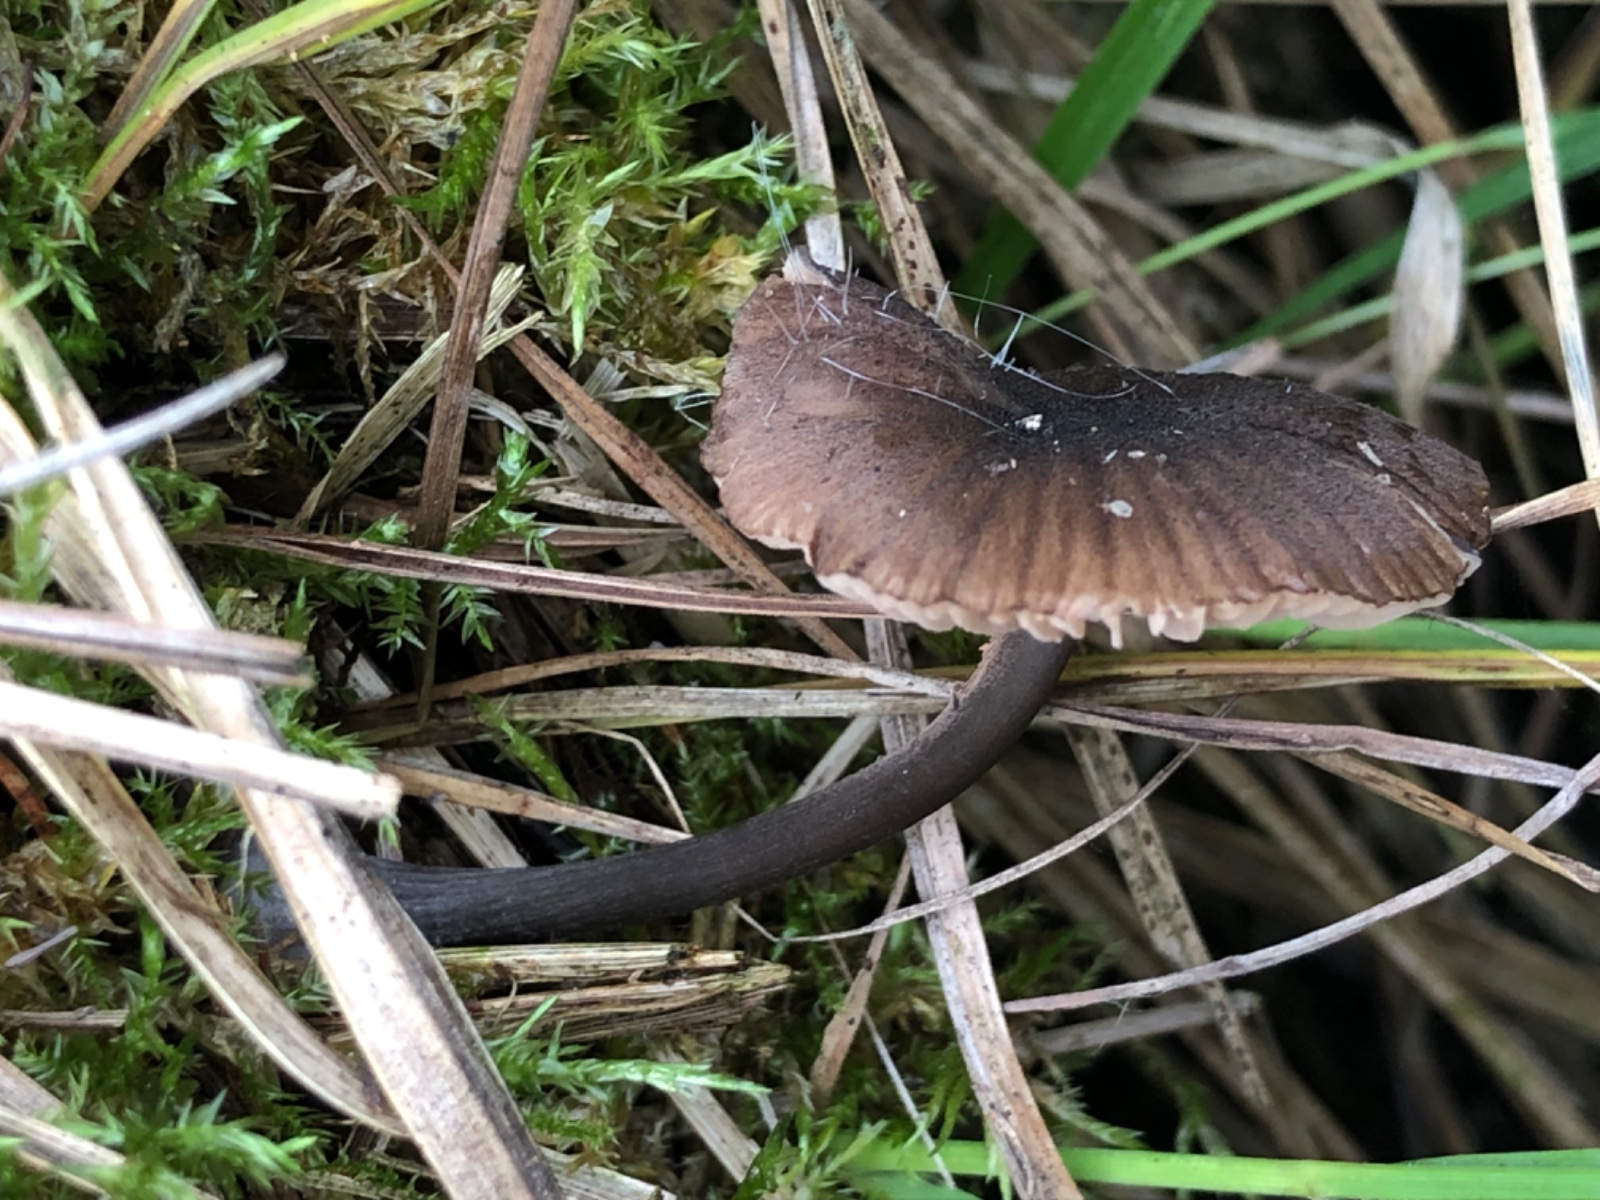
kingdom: Fungi
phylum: Basidiomycota
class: Agaricomycetes
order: Agaricales
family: Entolomataceae
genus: Entoloma
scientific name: Entoloma
